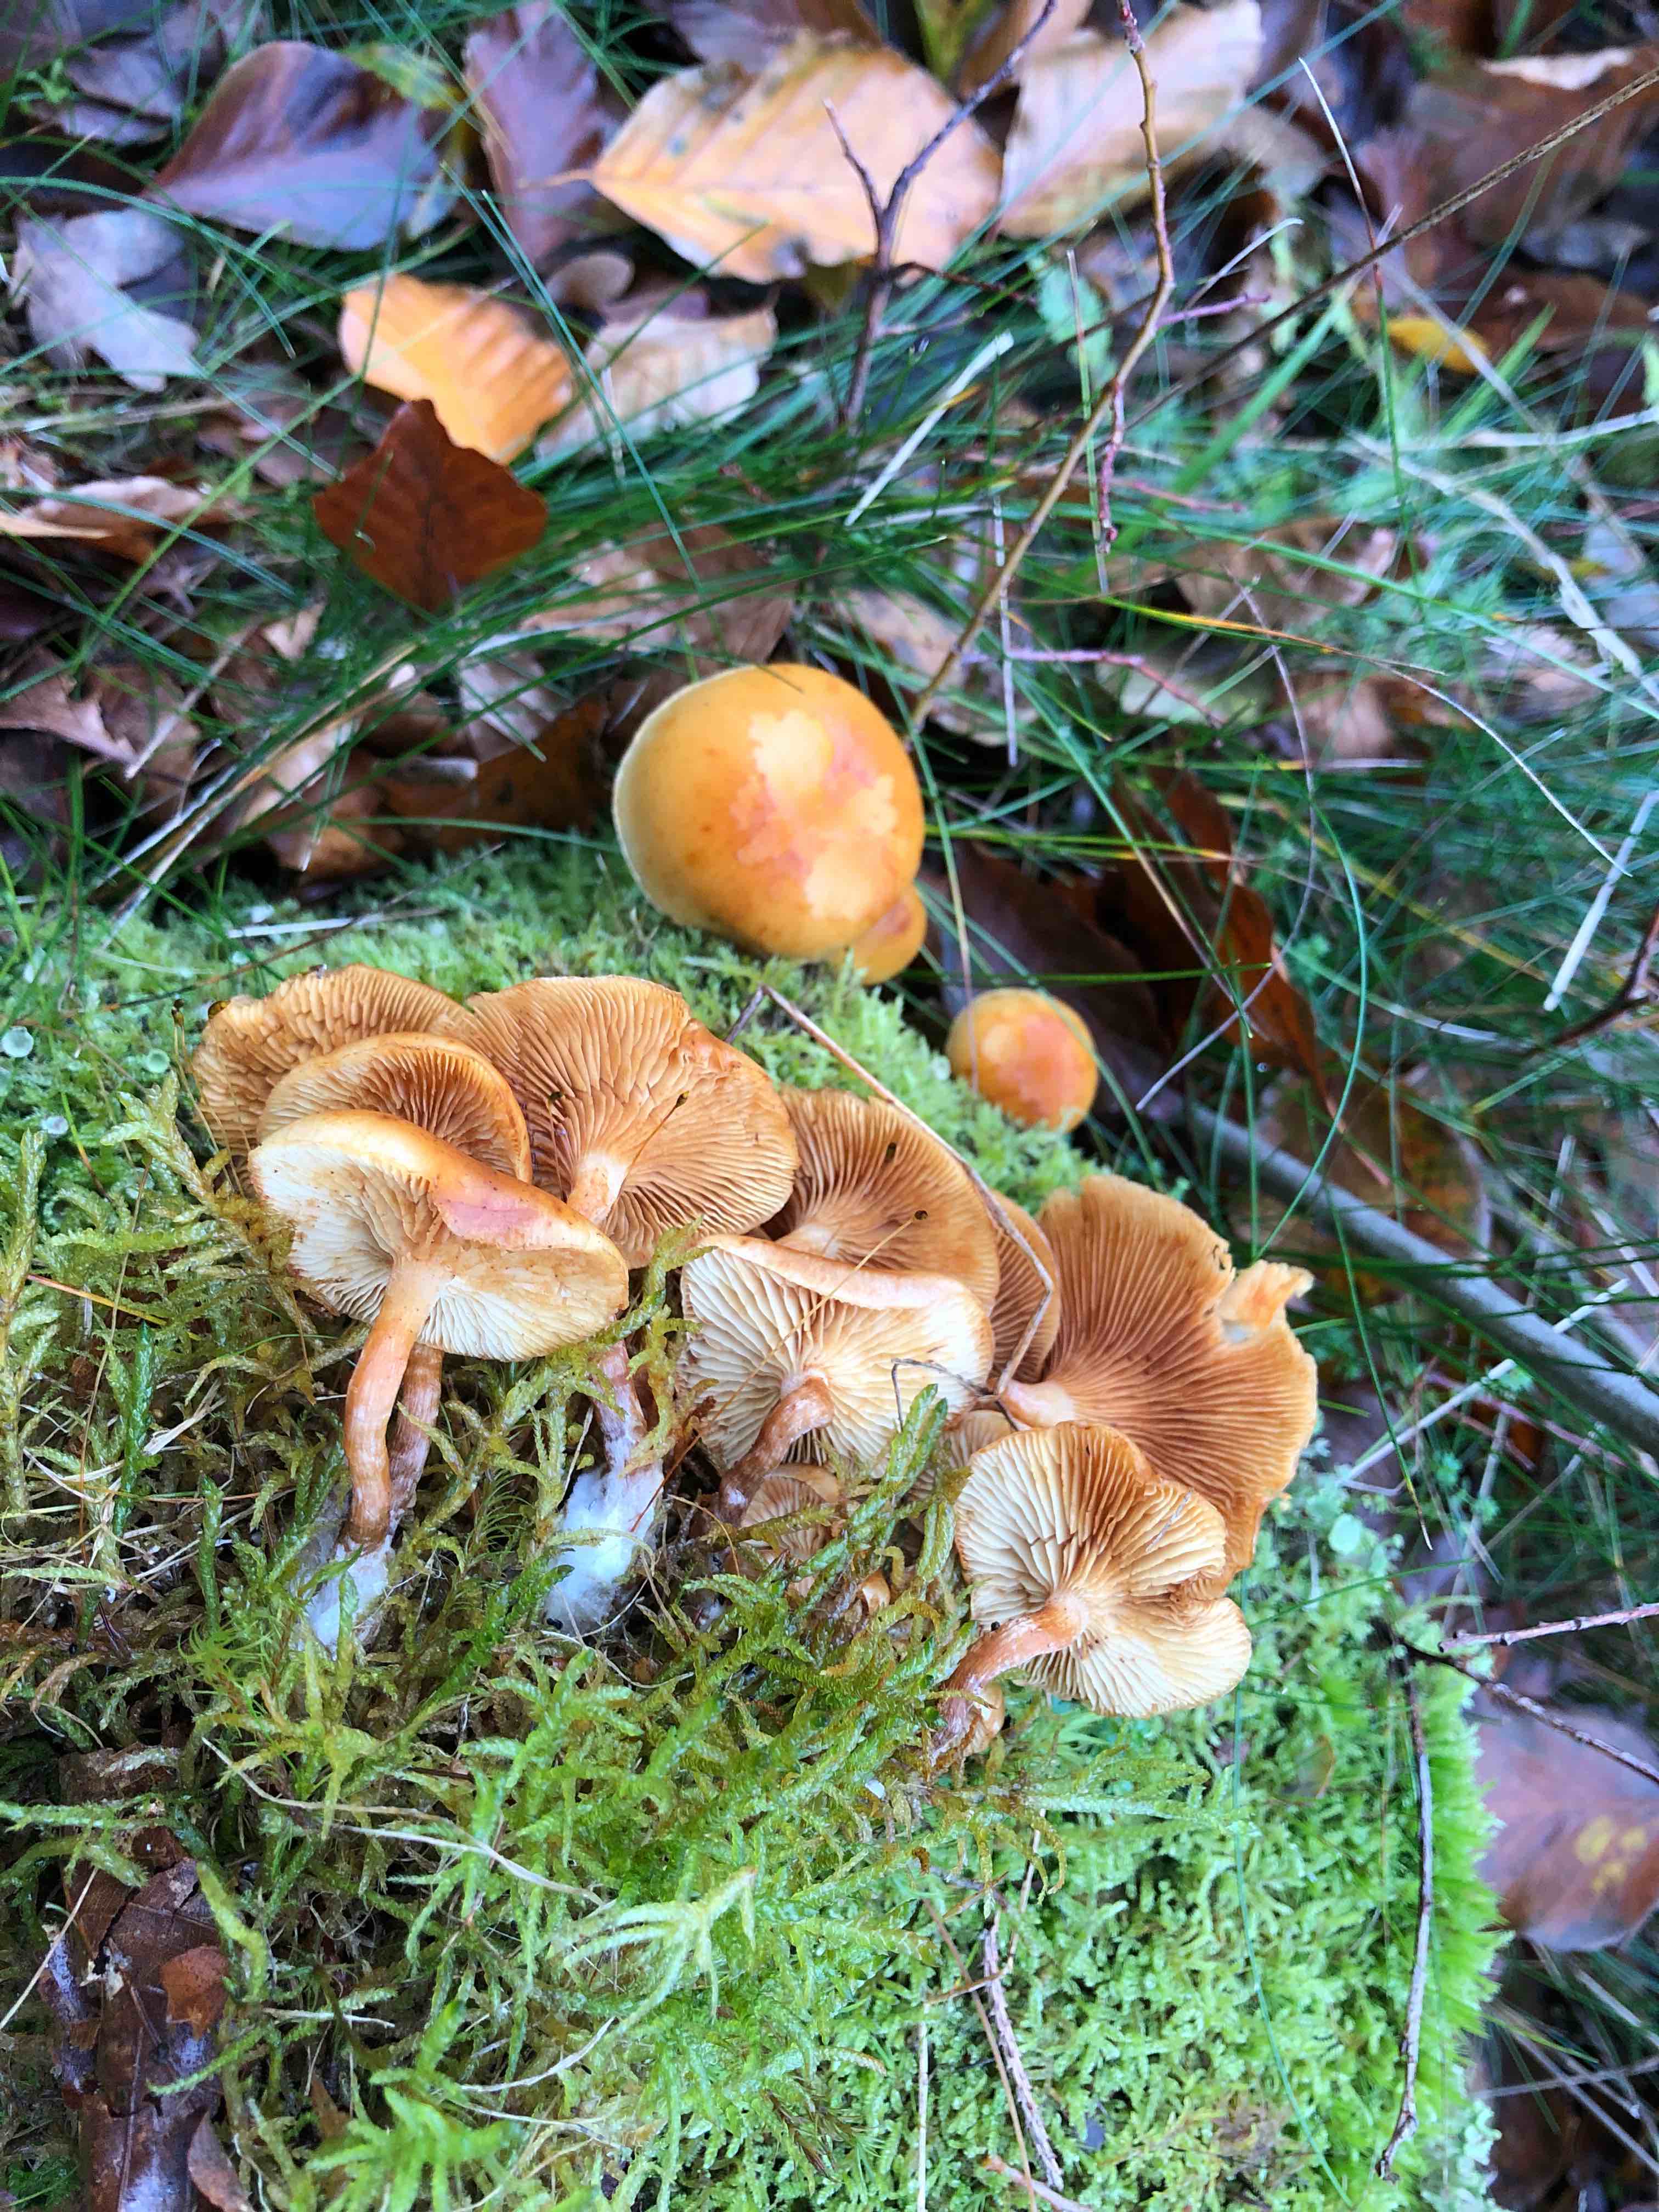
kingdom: Fungi
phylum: Basidiomycota
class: Agaricomycetes
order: Agaricales
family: Hymenogastraceae
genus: Gymnopilus
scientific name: Gymnopilus penetrans
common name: plettet flammehat
